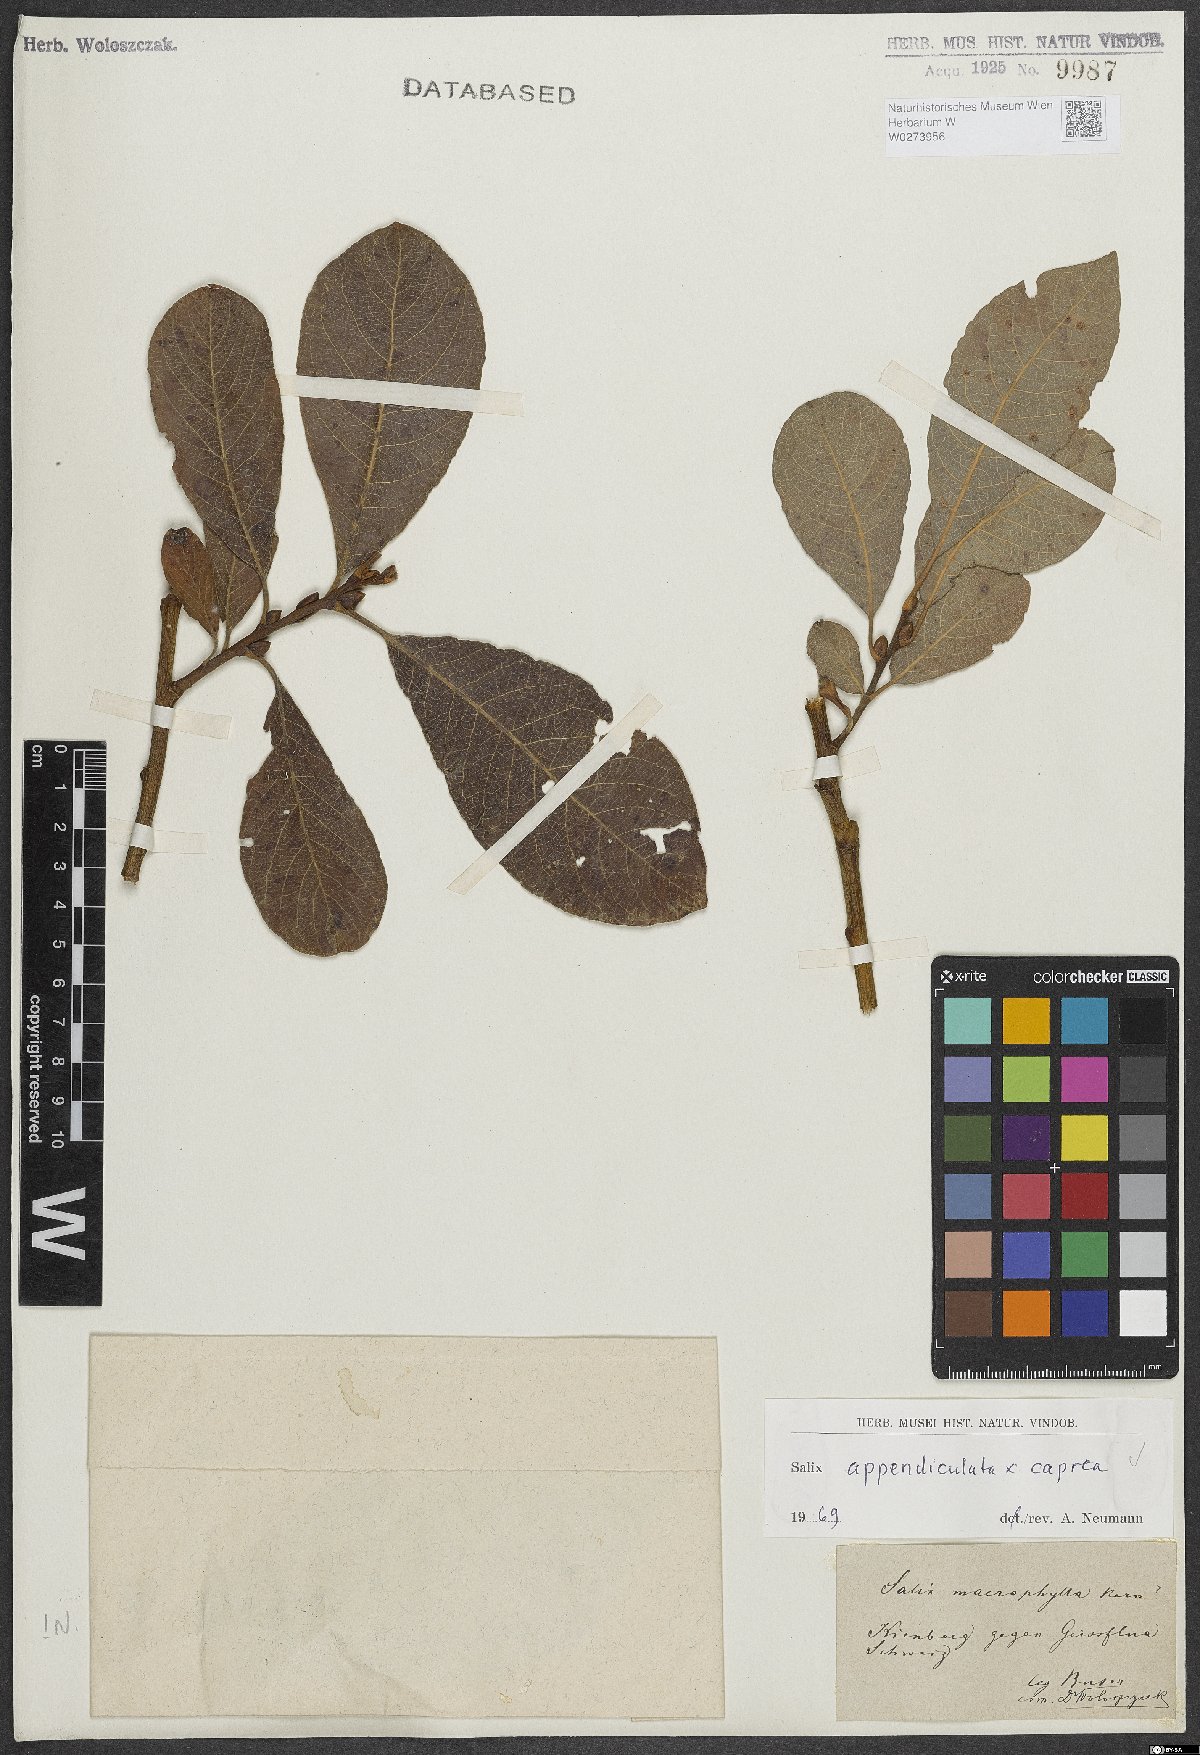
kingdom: Plantae
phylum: Tracheophyta
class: Magnoliopsida
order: Malpighiales
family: Salicaceae
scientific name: Salicaceae
